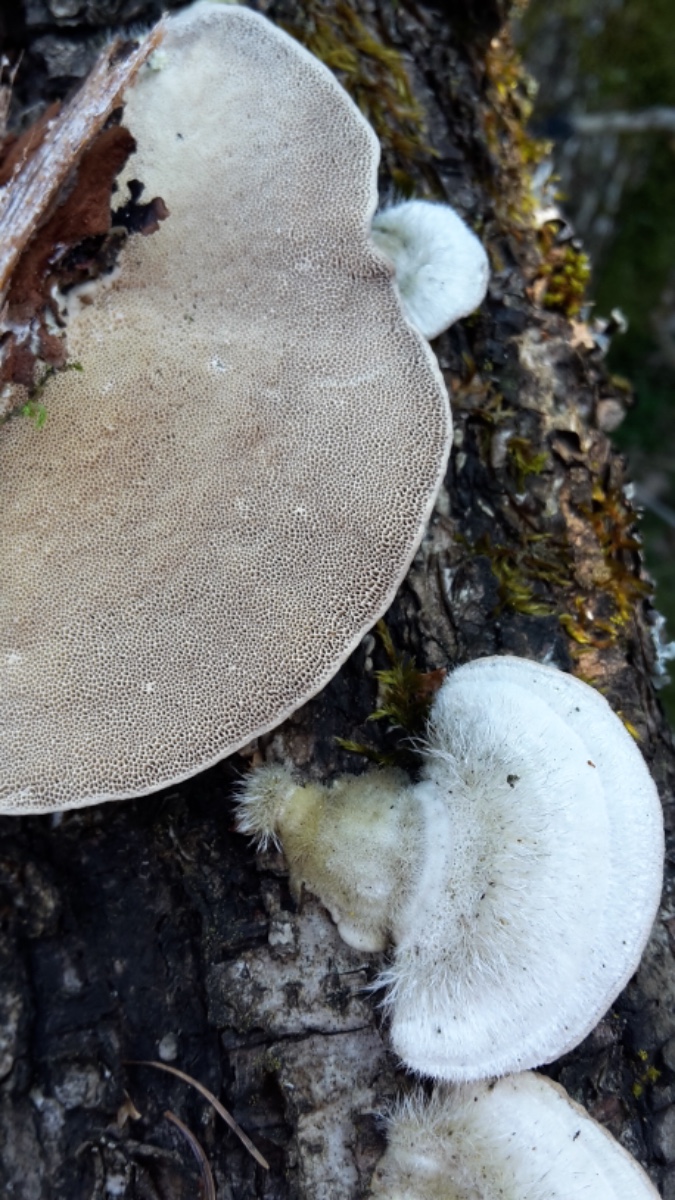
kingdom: Fungi
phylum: Basidiomycota
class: Agaricomycetes
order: Polyporales
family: Polyporaceae
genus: Trametes
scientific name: Trametes hirsuta
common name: håret læderporesvamp
